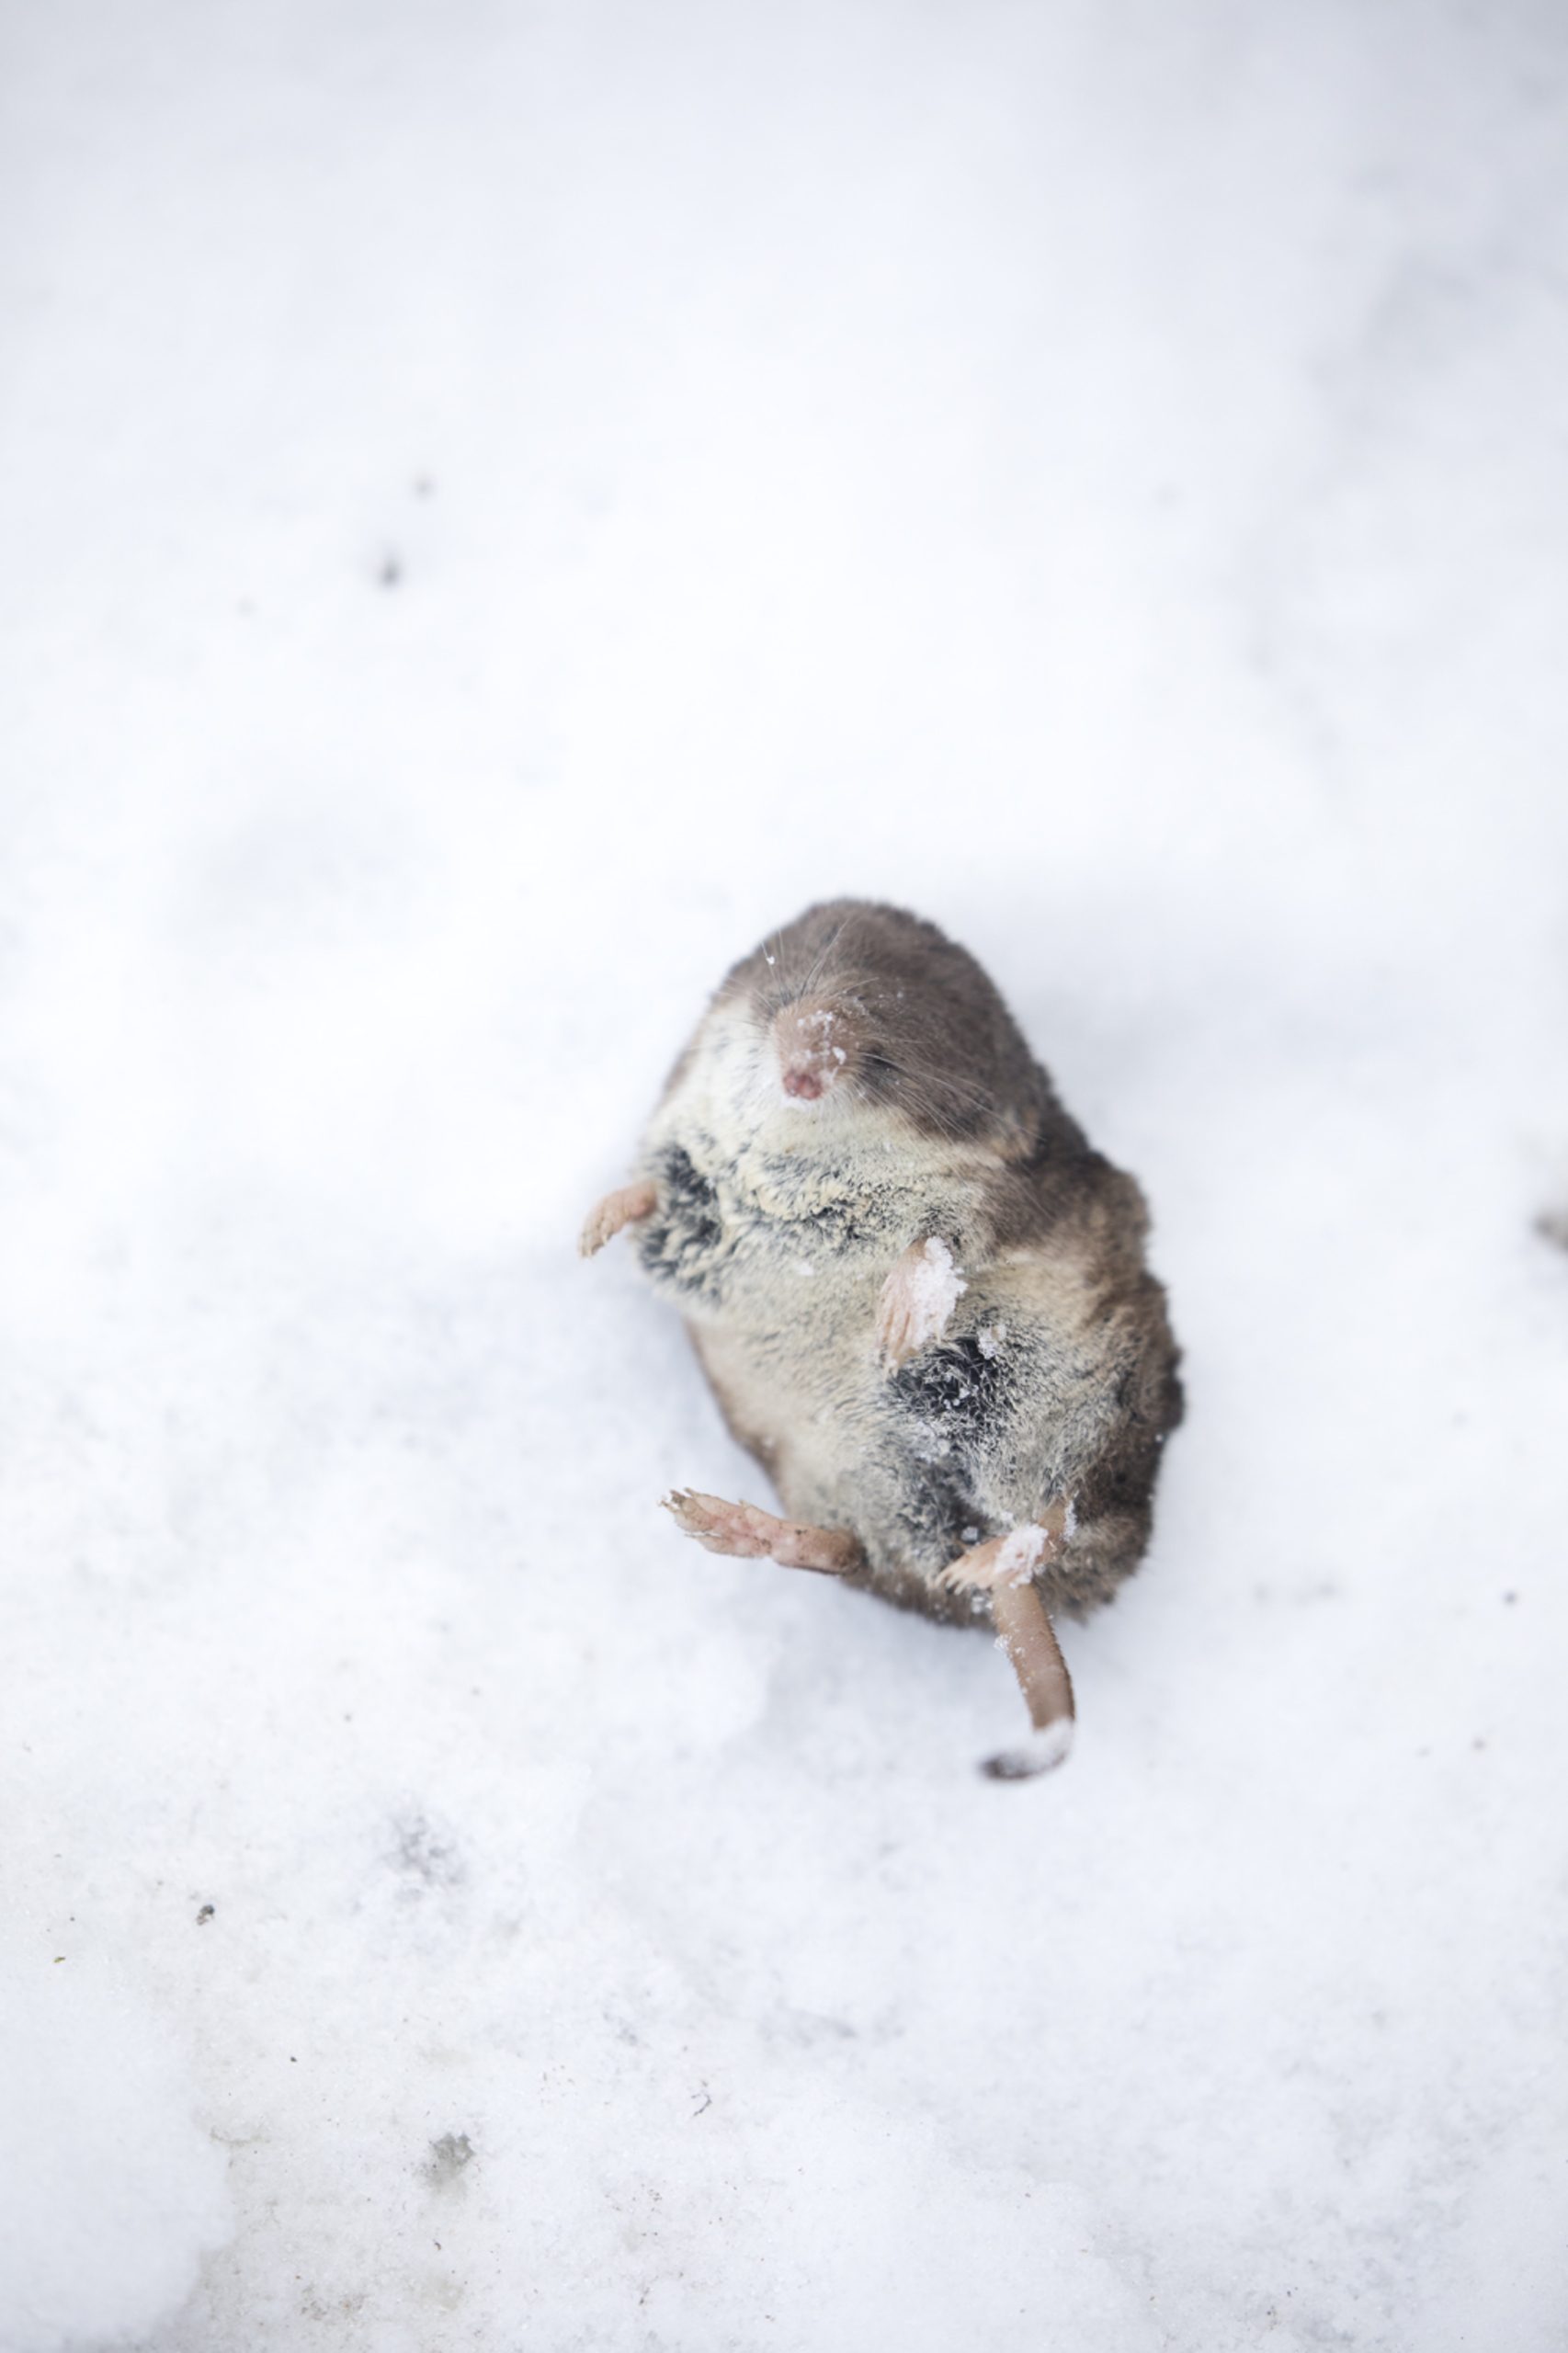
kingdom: Animalia
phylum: Chordata
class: Mammalia
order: Soricomorpha
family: Soricidae
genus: Sorex
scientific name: Sorex araneus
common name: Almindelig spidsmus
